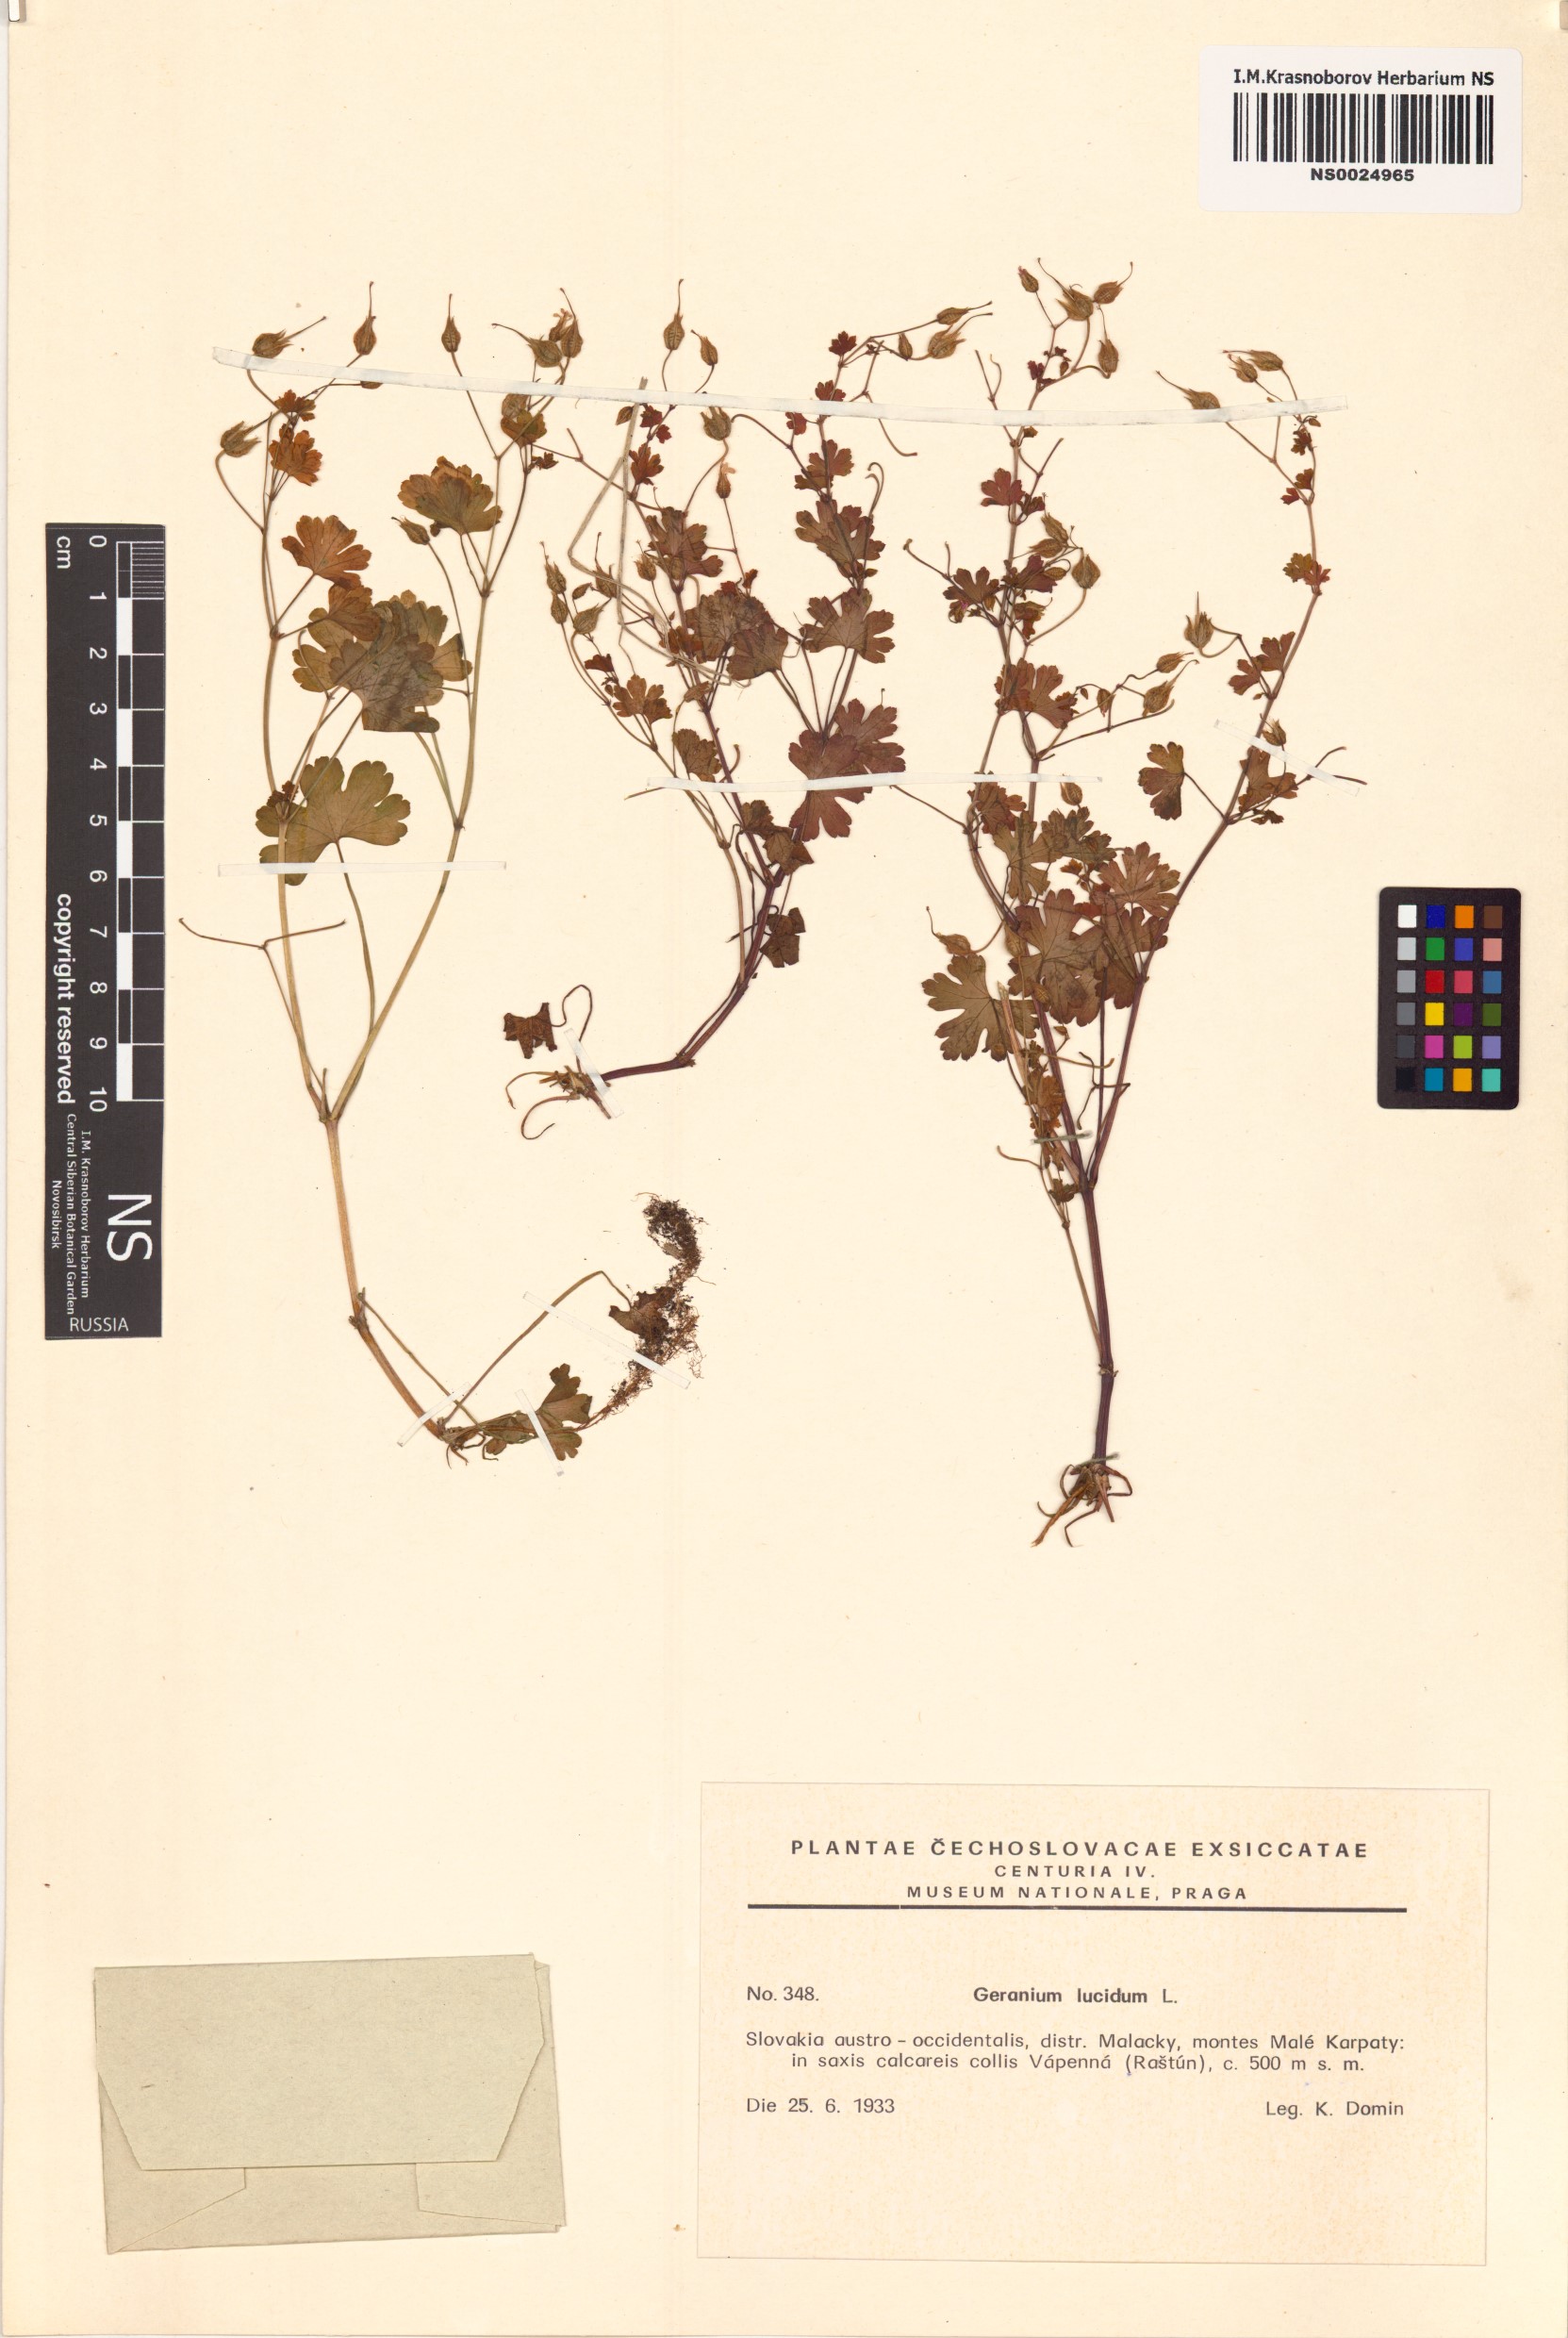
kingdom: Plantae
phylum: Tracheophyta
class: Magnoliopsida
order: Geraniales
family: Geraniaceae
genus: Geranium
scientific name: Geranium lucidum
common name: Shining crane's-bill
